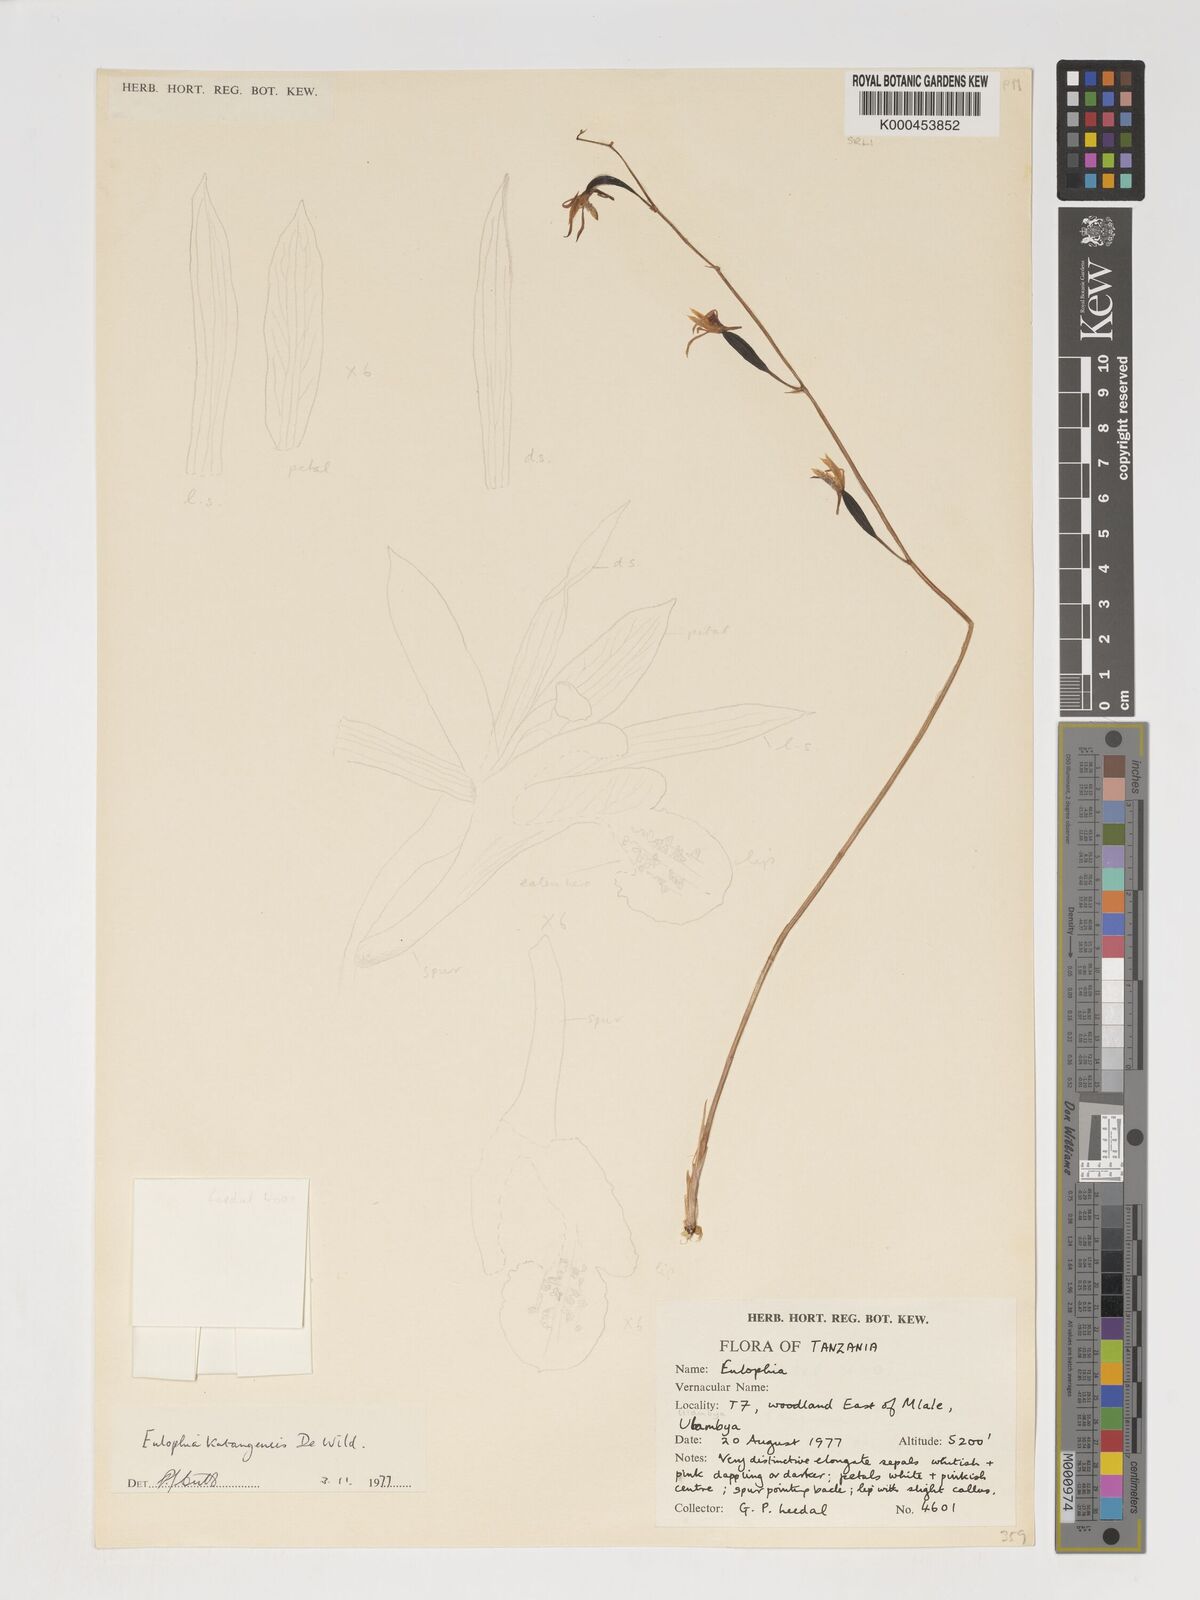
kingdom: Plantae
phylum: Tracheophyta
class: Liliopsida
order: Asparagales
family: Orchidaceae
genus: Eulophia
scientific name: Eulophia katangensis
